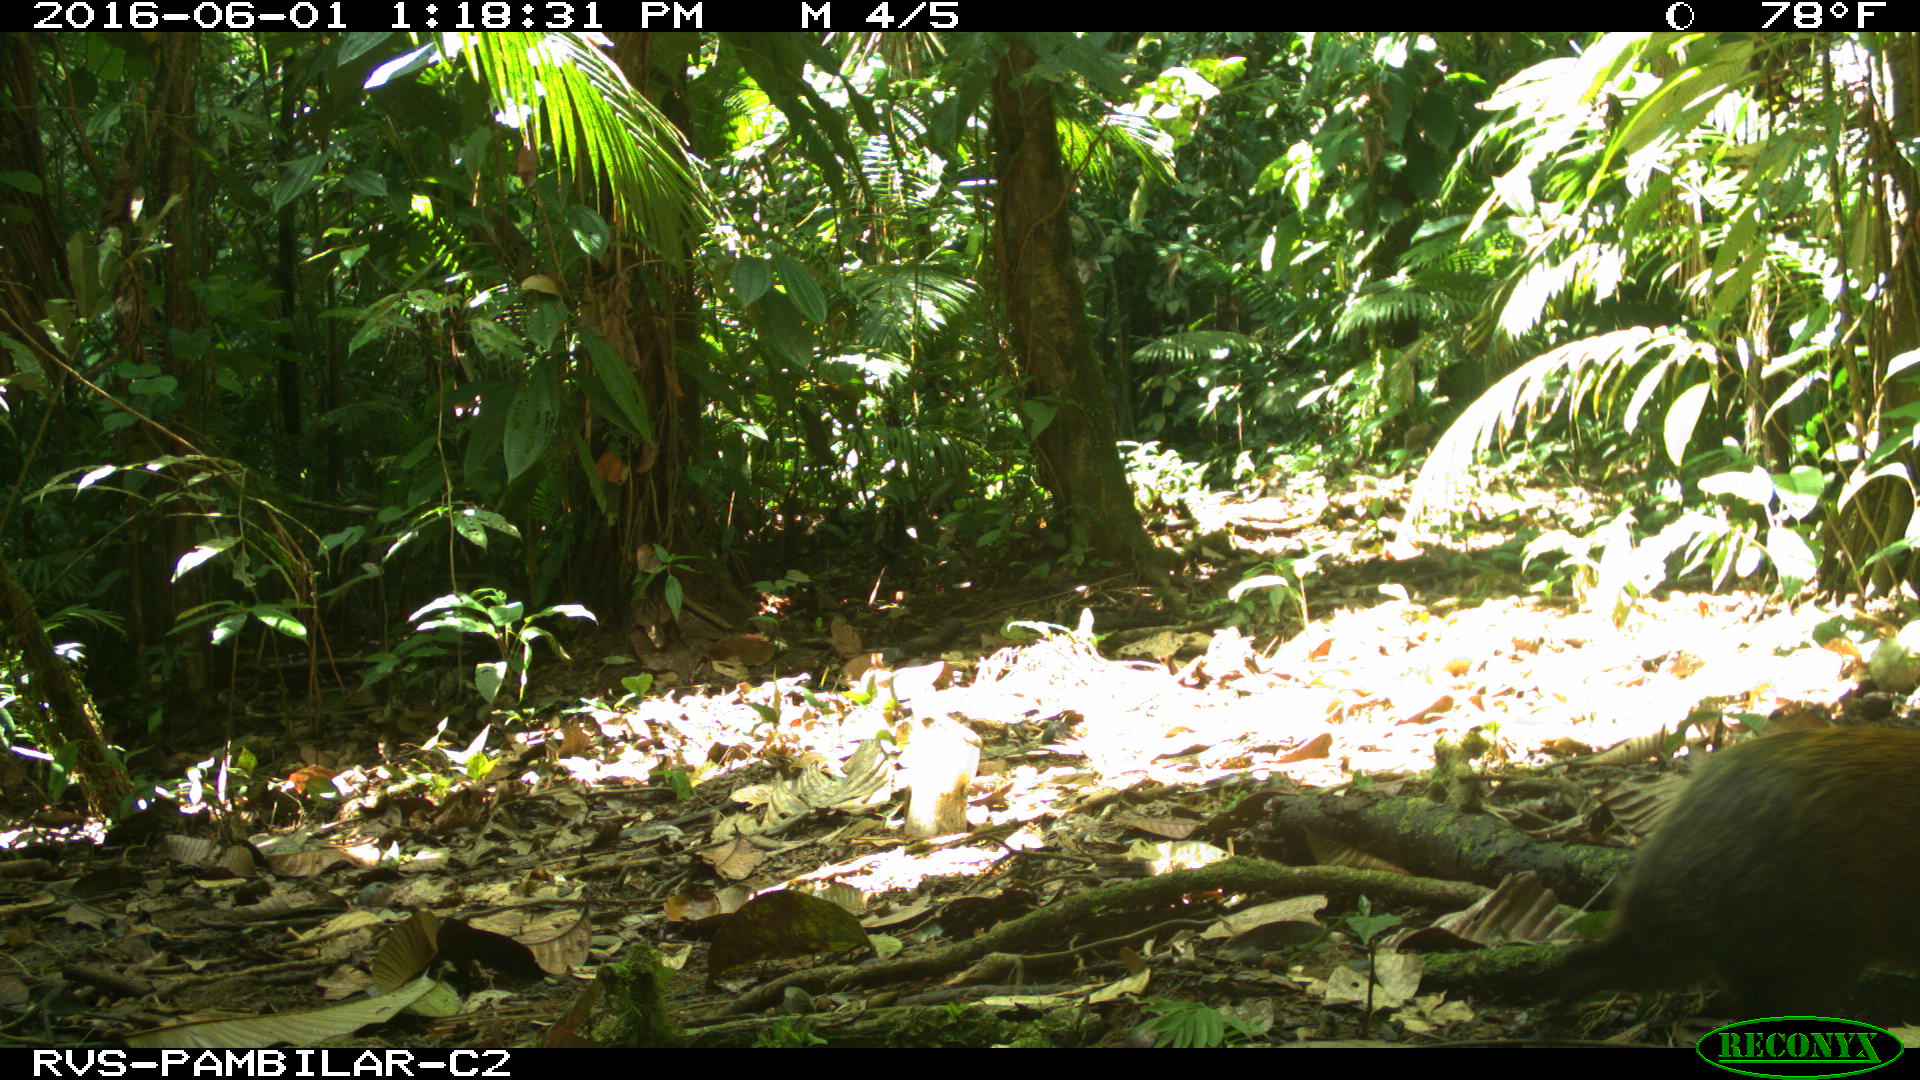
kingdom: Animalia
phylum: Chordata
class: Mammalia
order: Rodentia
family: Dasyproctidae
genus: Dasyprocta
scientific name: Dasyprocta punctata
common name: Central american agouti
